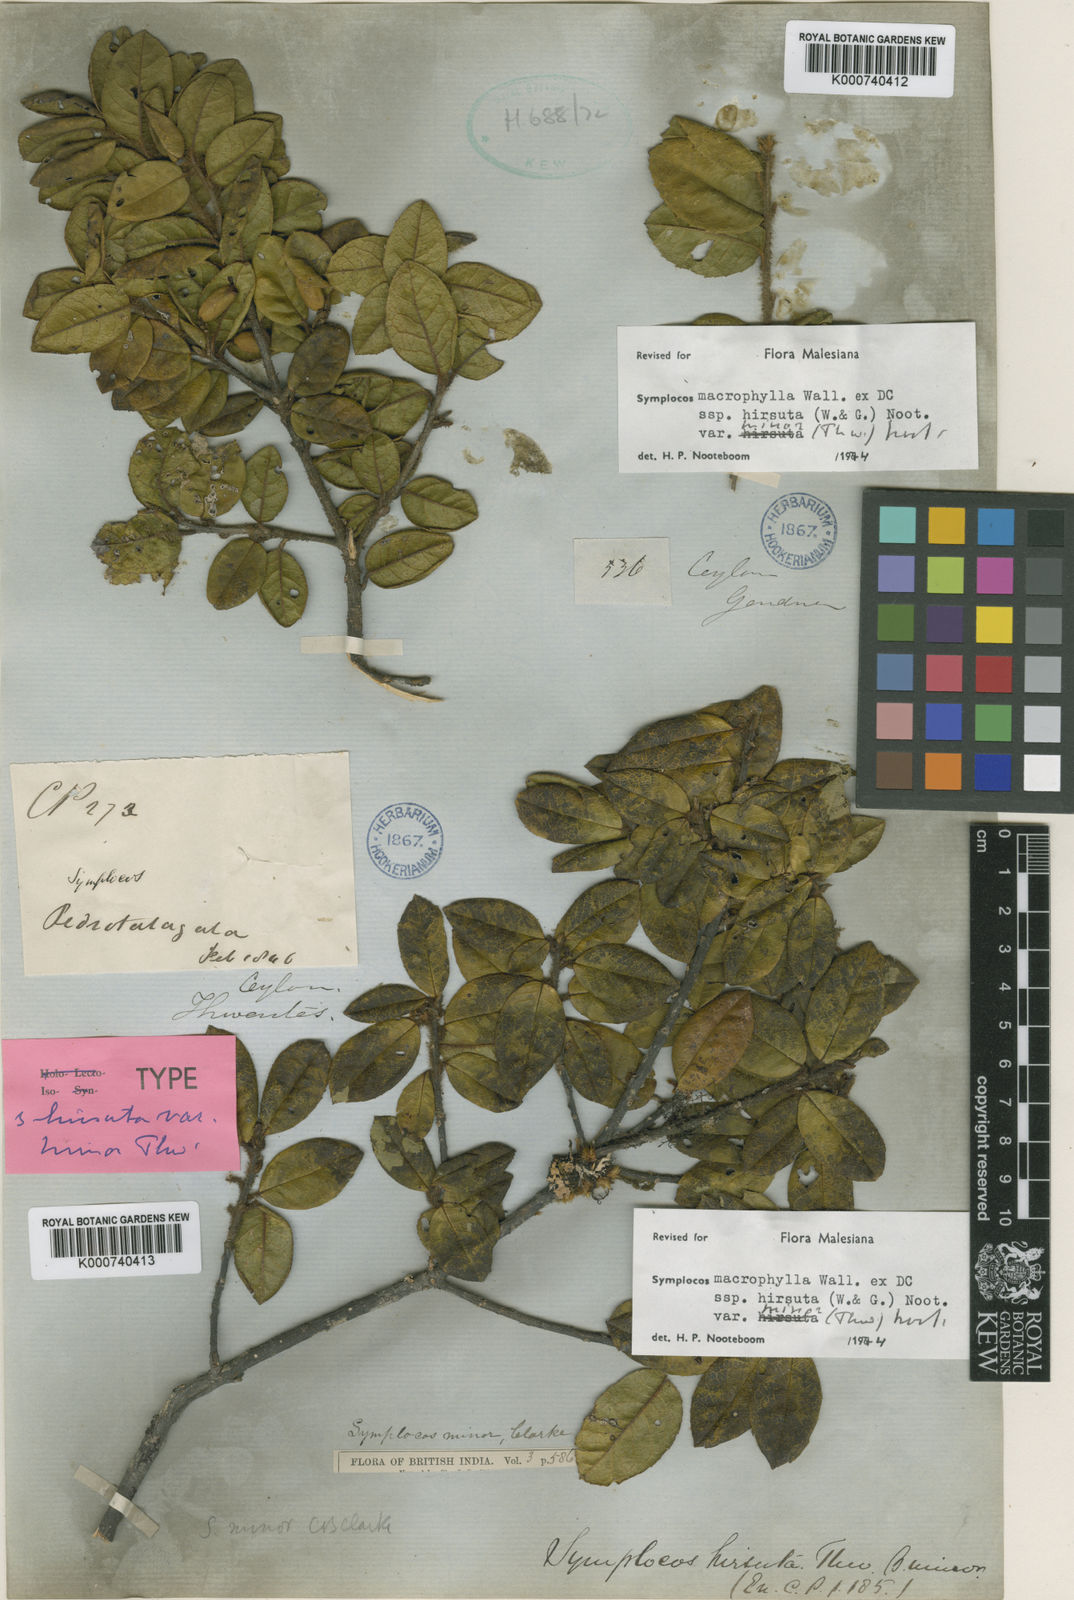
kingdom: Plantae
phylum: Tracheophyta
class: Magnoliopsida
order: Ericales
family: Symplocaceae
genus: Symplocos
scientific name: Symplocos arbutifolia
